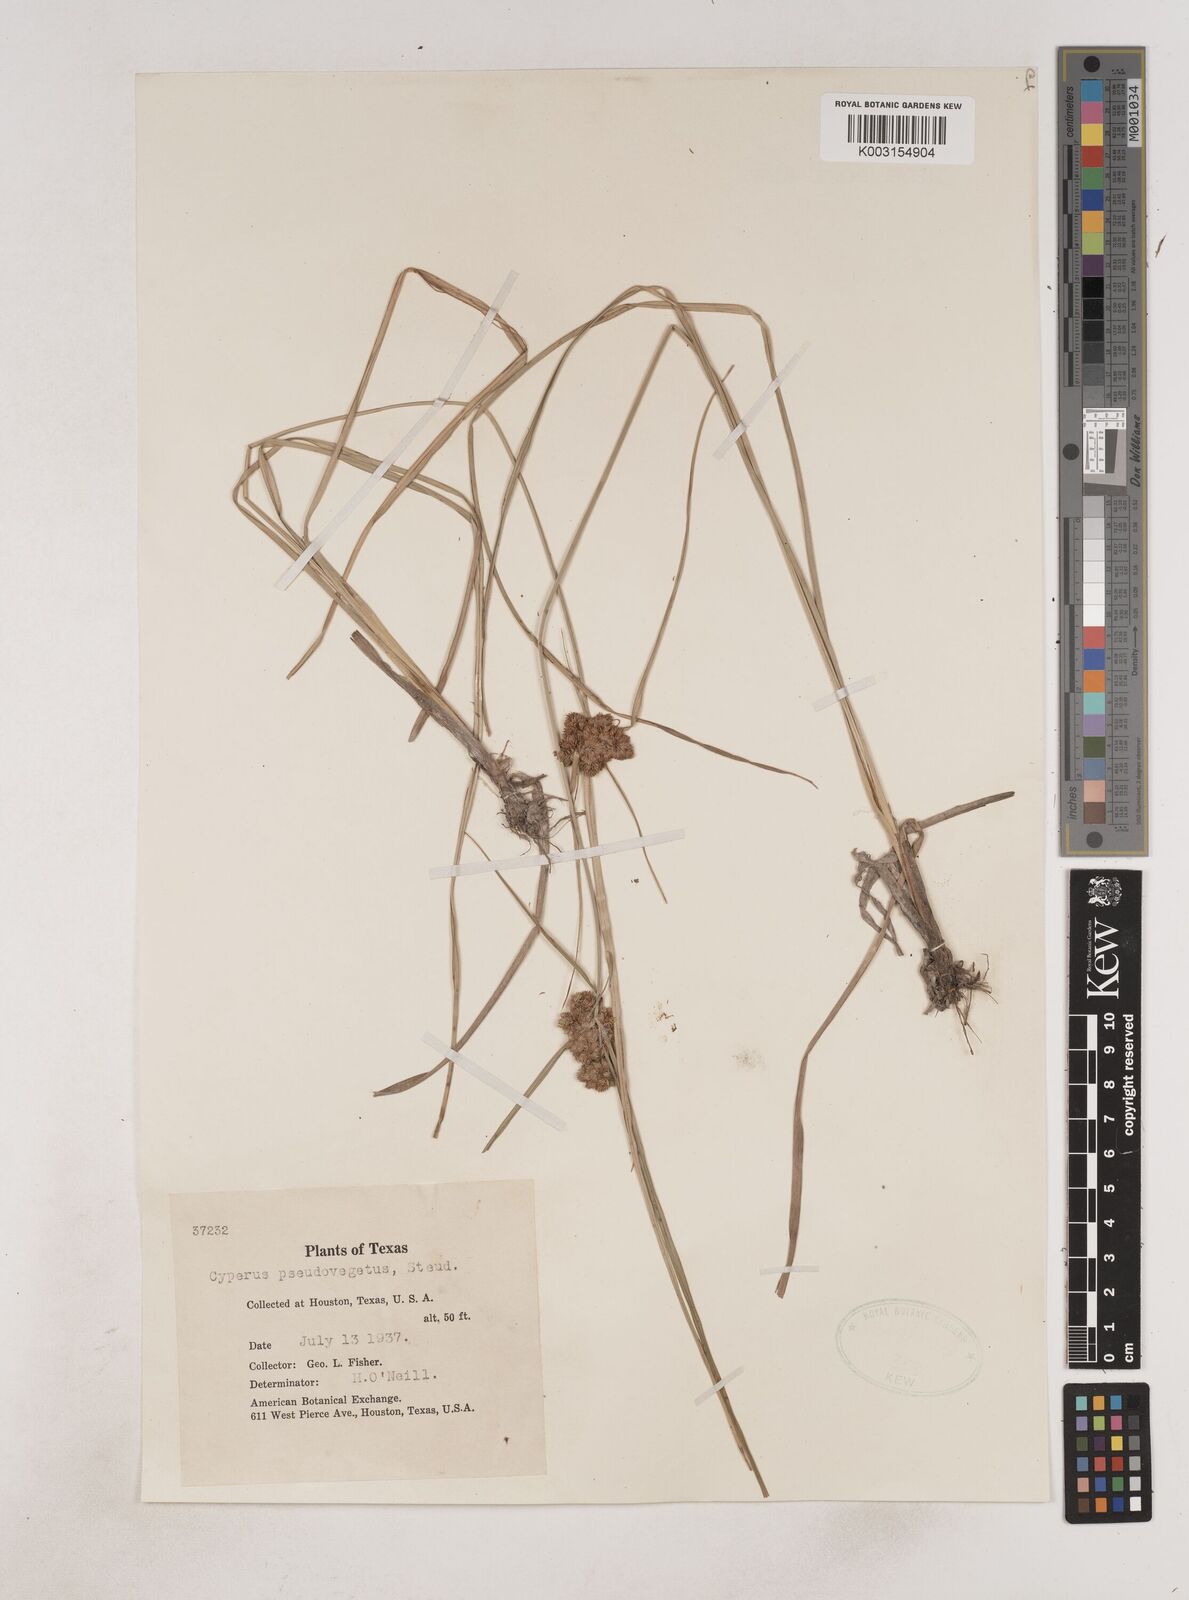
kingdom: Plantae
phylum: Tracheophyta
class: Liliopsida
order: Poales
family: Cyperaceae
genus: Cyperus
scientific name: Cyperus pseudovegetus
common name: Marsh flat sedge
